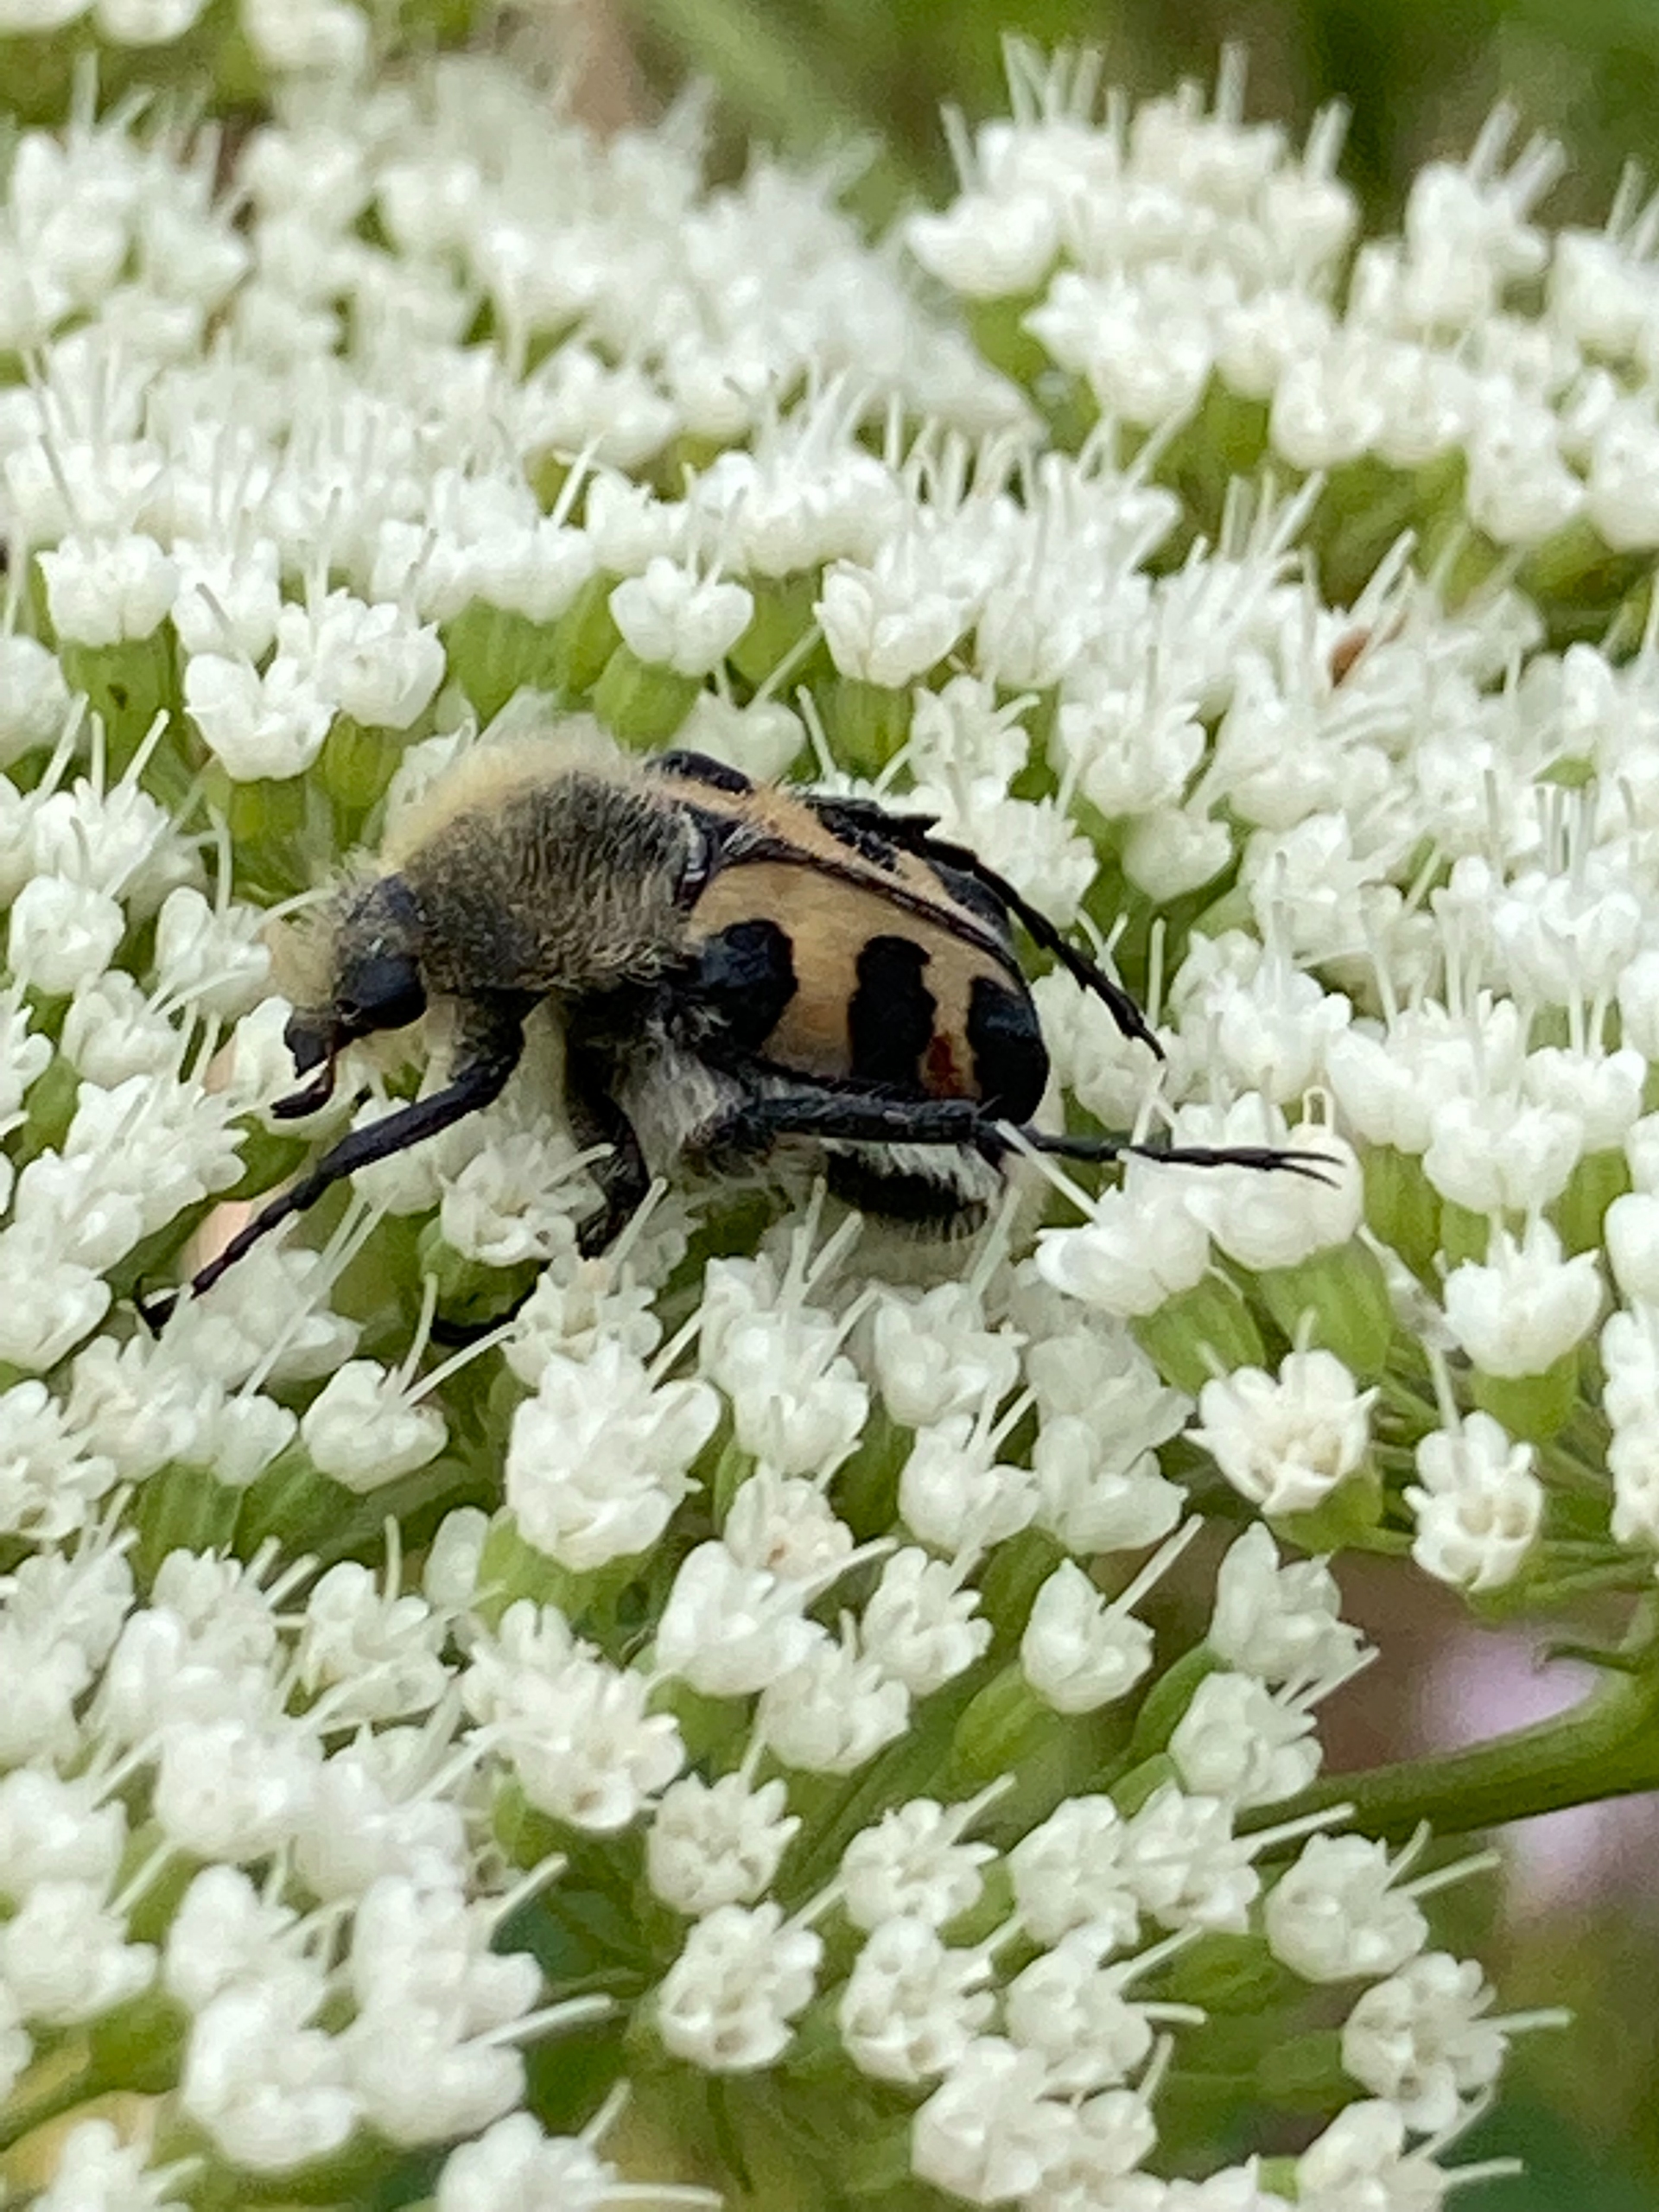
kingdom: Animalia
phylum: Arthropoda
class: Insecta
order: Coleoptera
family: Scarabaeidae
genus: Trichius
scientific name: Trichius gallicus
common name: Lille humlebille
